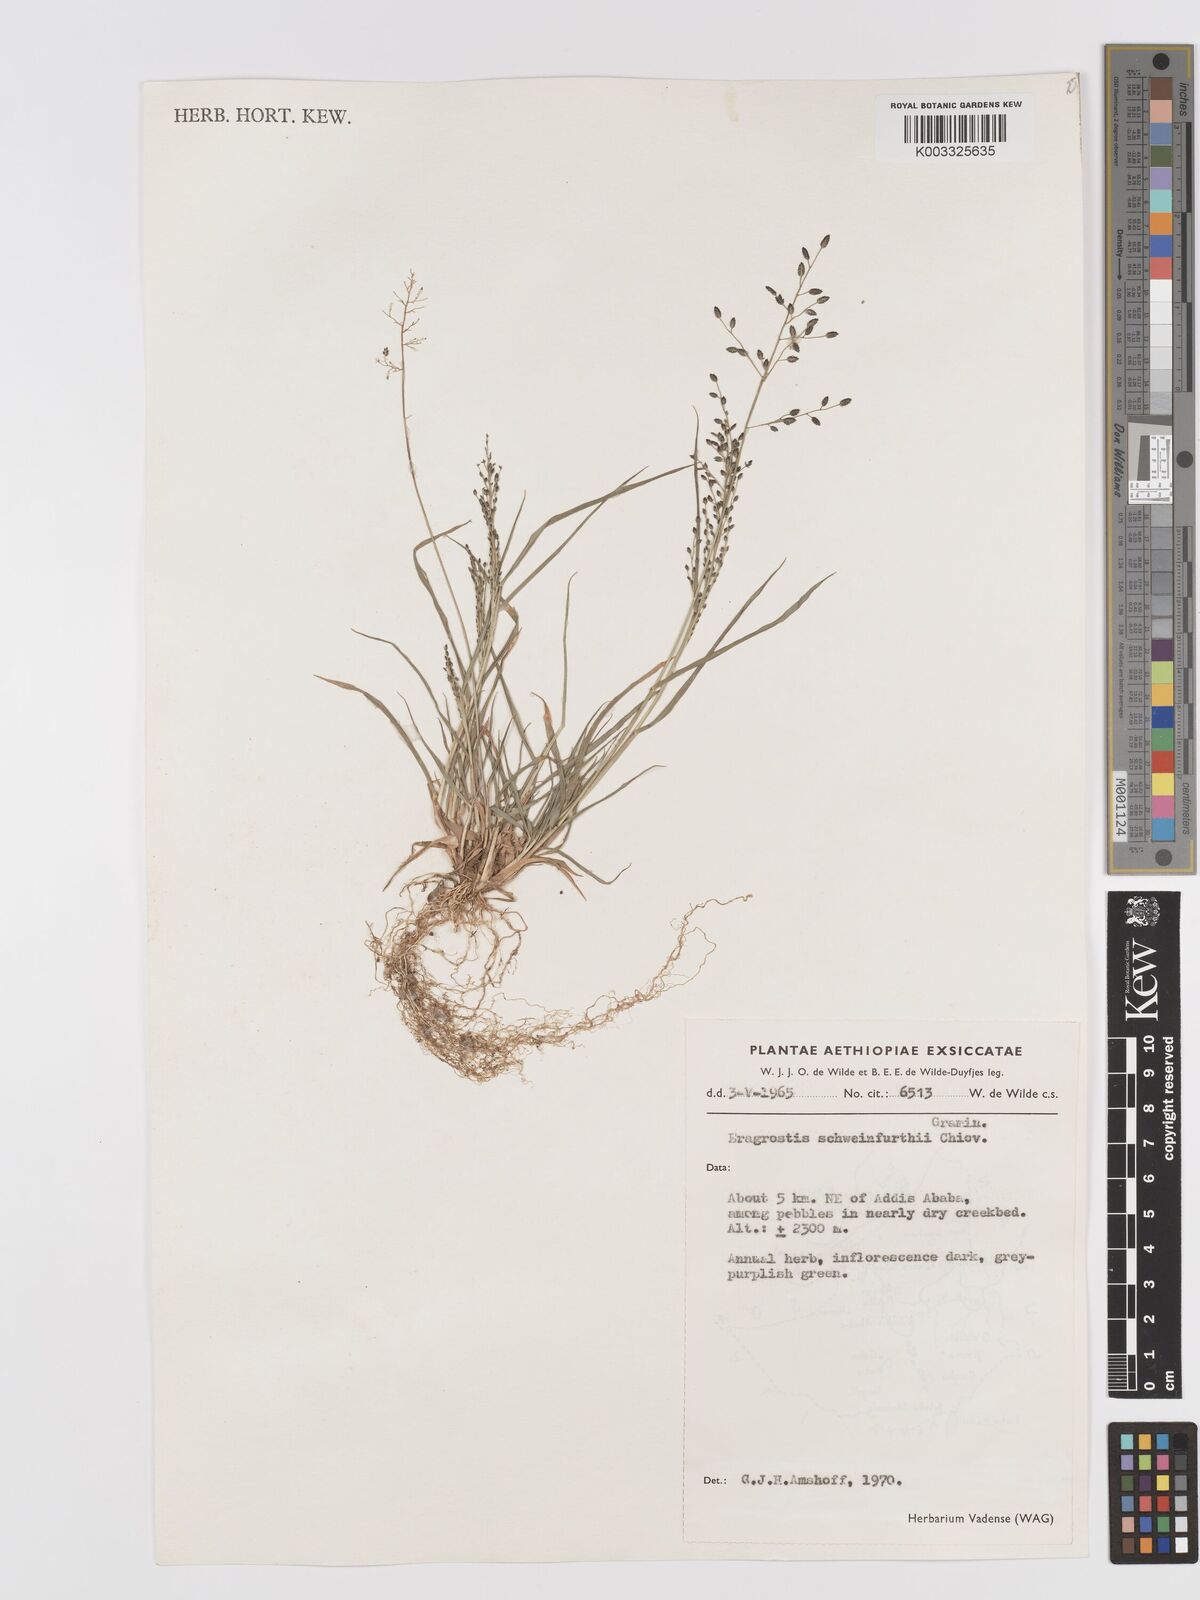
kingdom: Plantae
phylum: Tracheophyta
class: Liliopsida
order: Poales
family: Poaceae
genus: Eragrostis
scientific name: Eragrostis schweinfurthii
